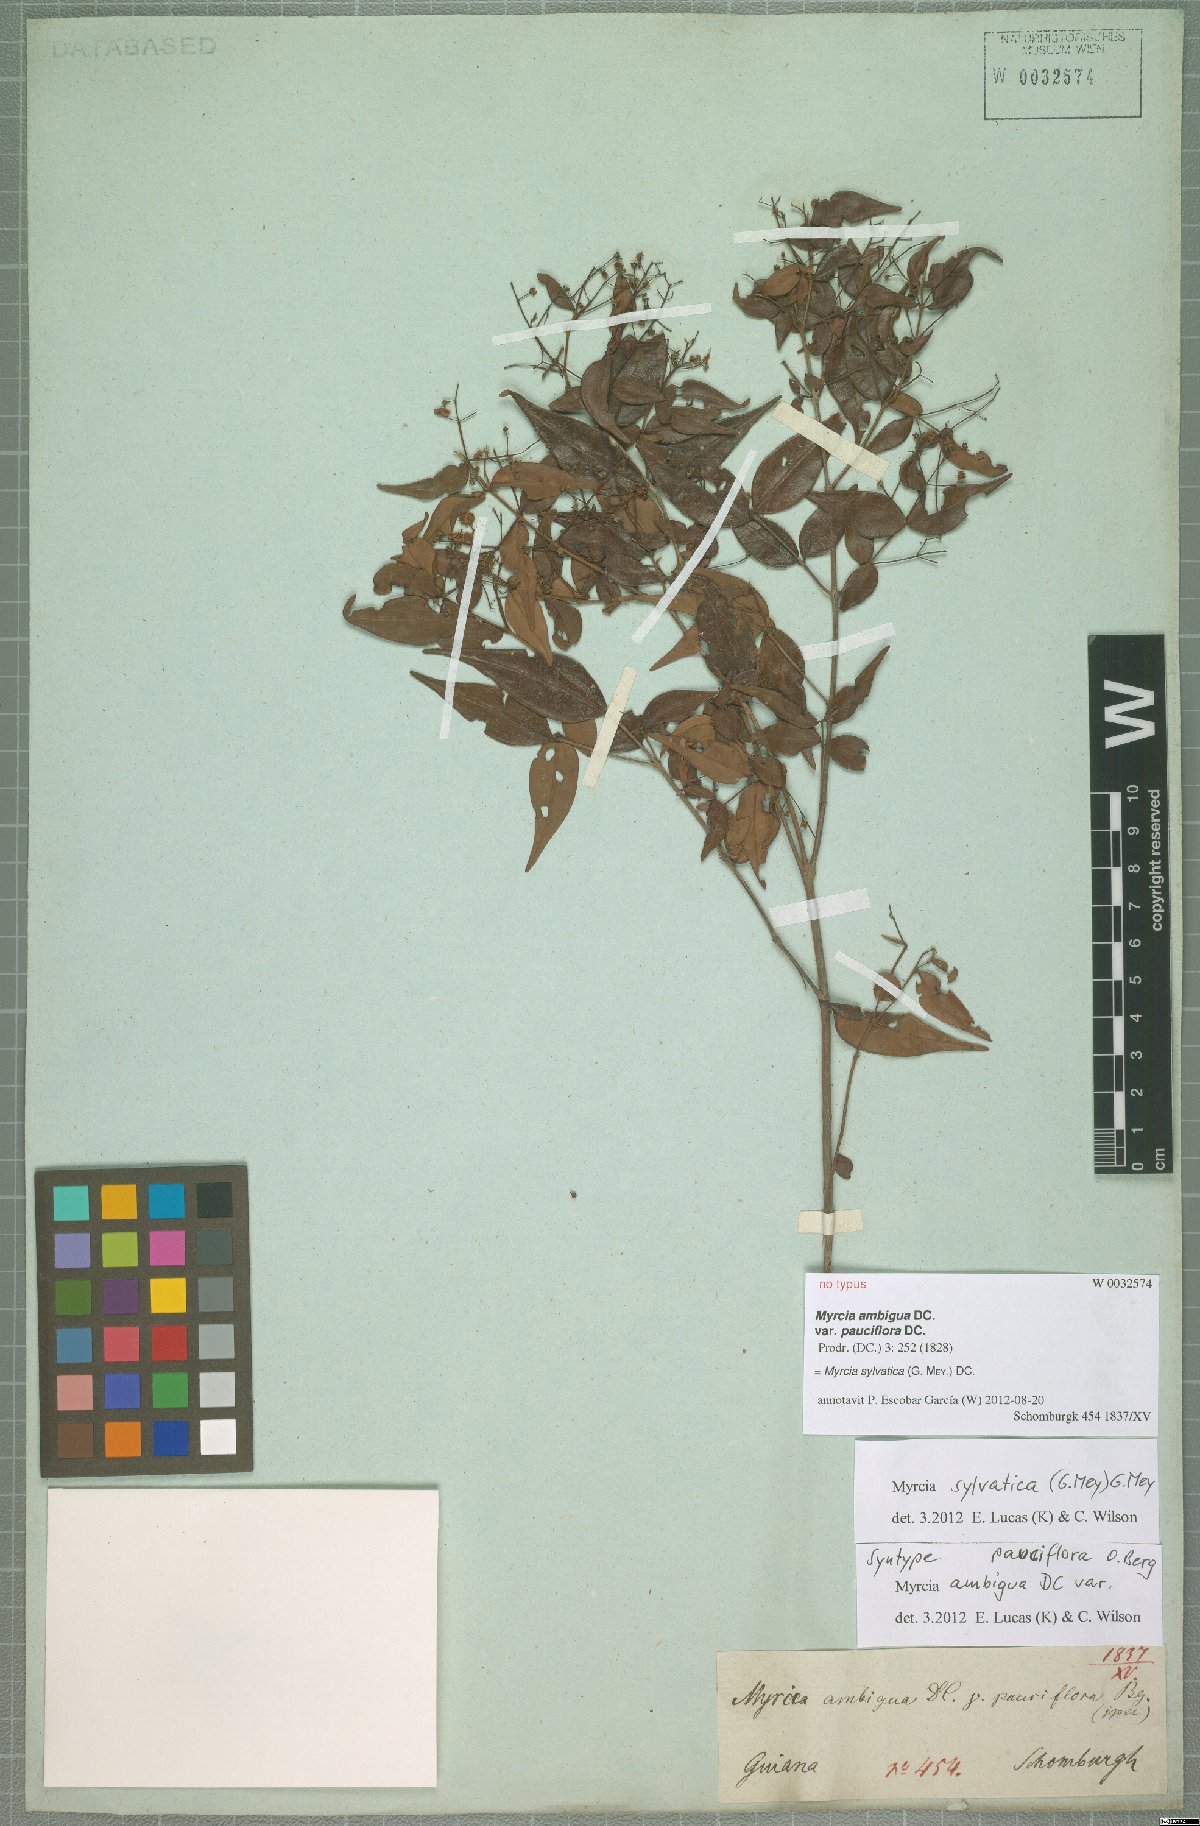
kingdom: Plantae
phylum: Tracheophyta
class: Magnoliopsida
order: Myrtales
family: Myrtaceae
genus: Myrcia
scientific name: Myrcia sylvatica
